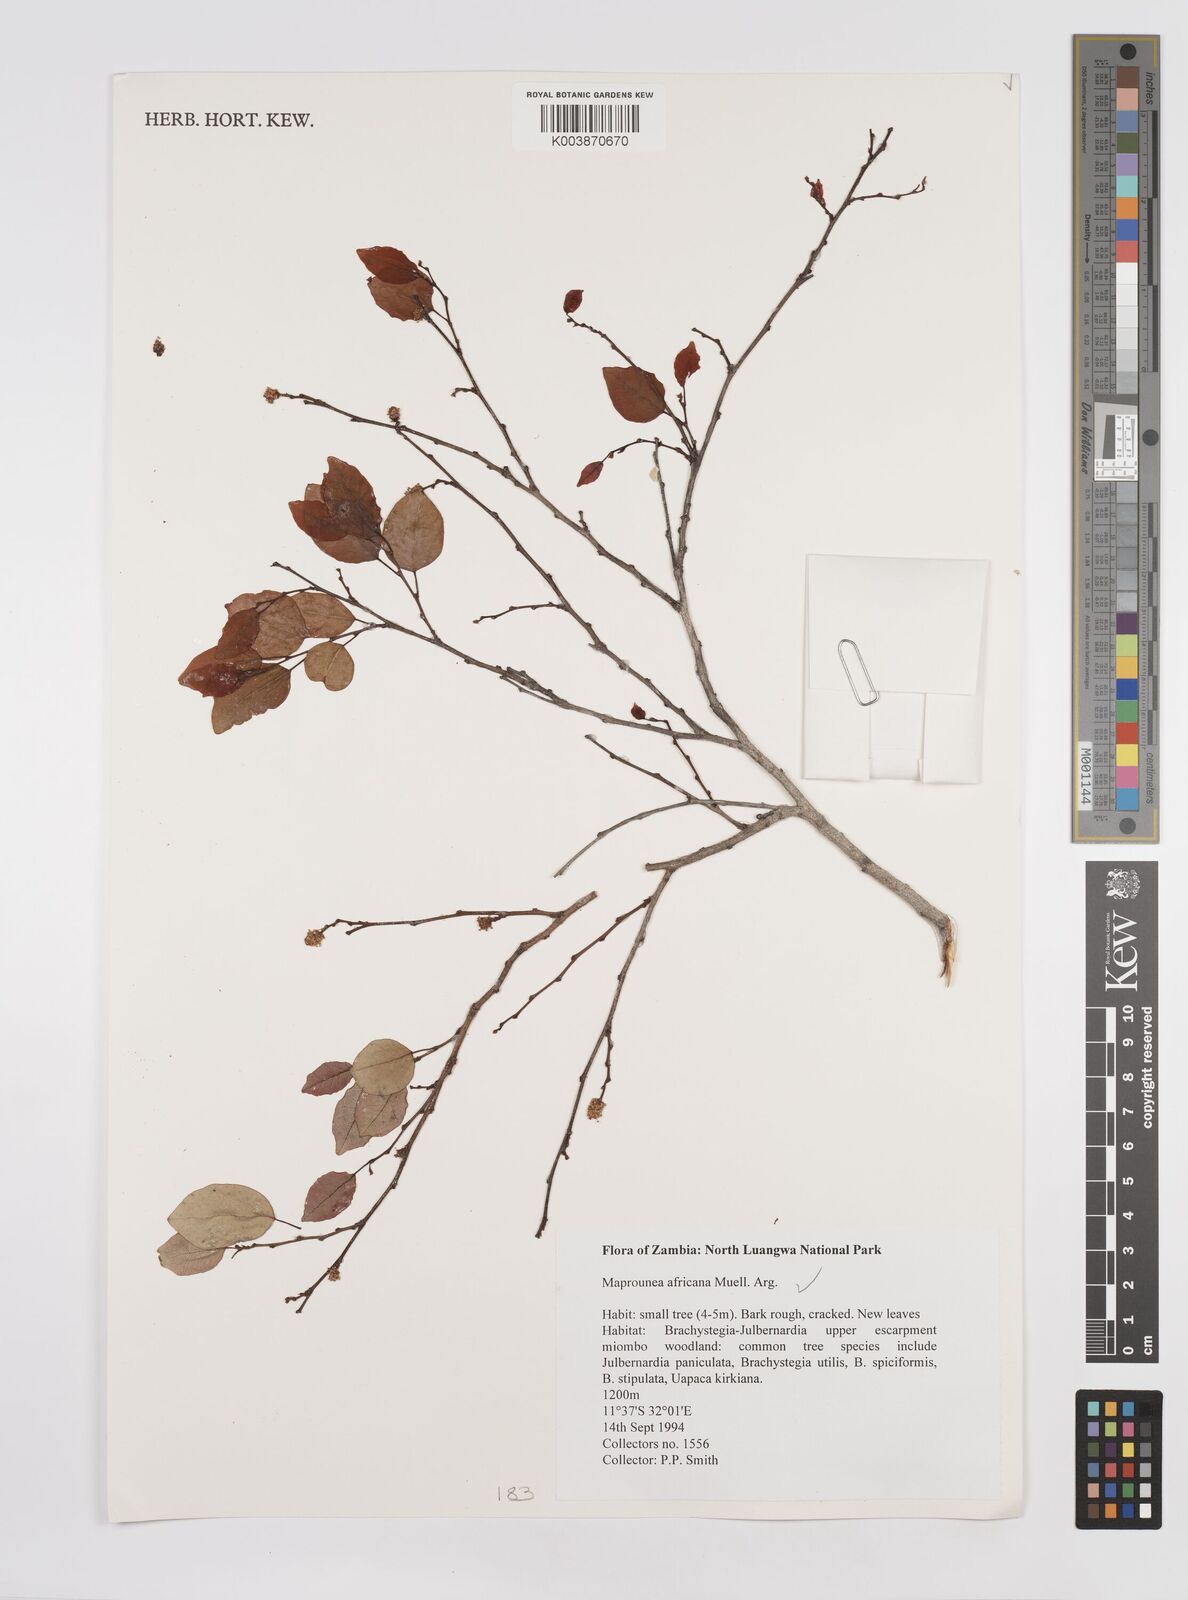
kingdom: Plantae
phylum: Tracheophyta
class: Magnoliopsida
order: Malpighiales
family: Euphorbiaceae
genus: Maprounea
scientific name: Maprounea africana
